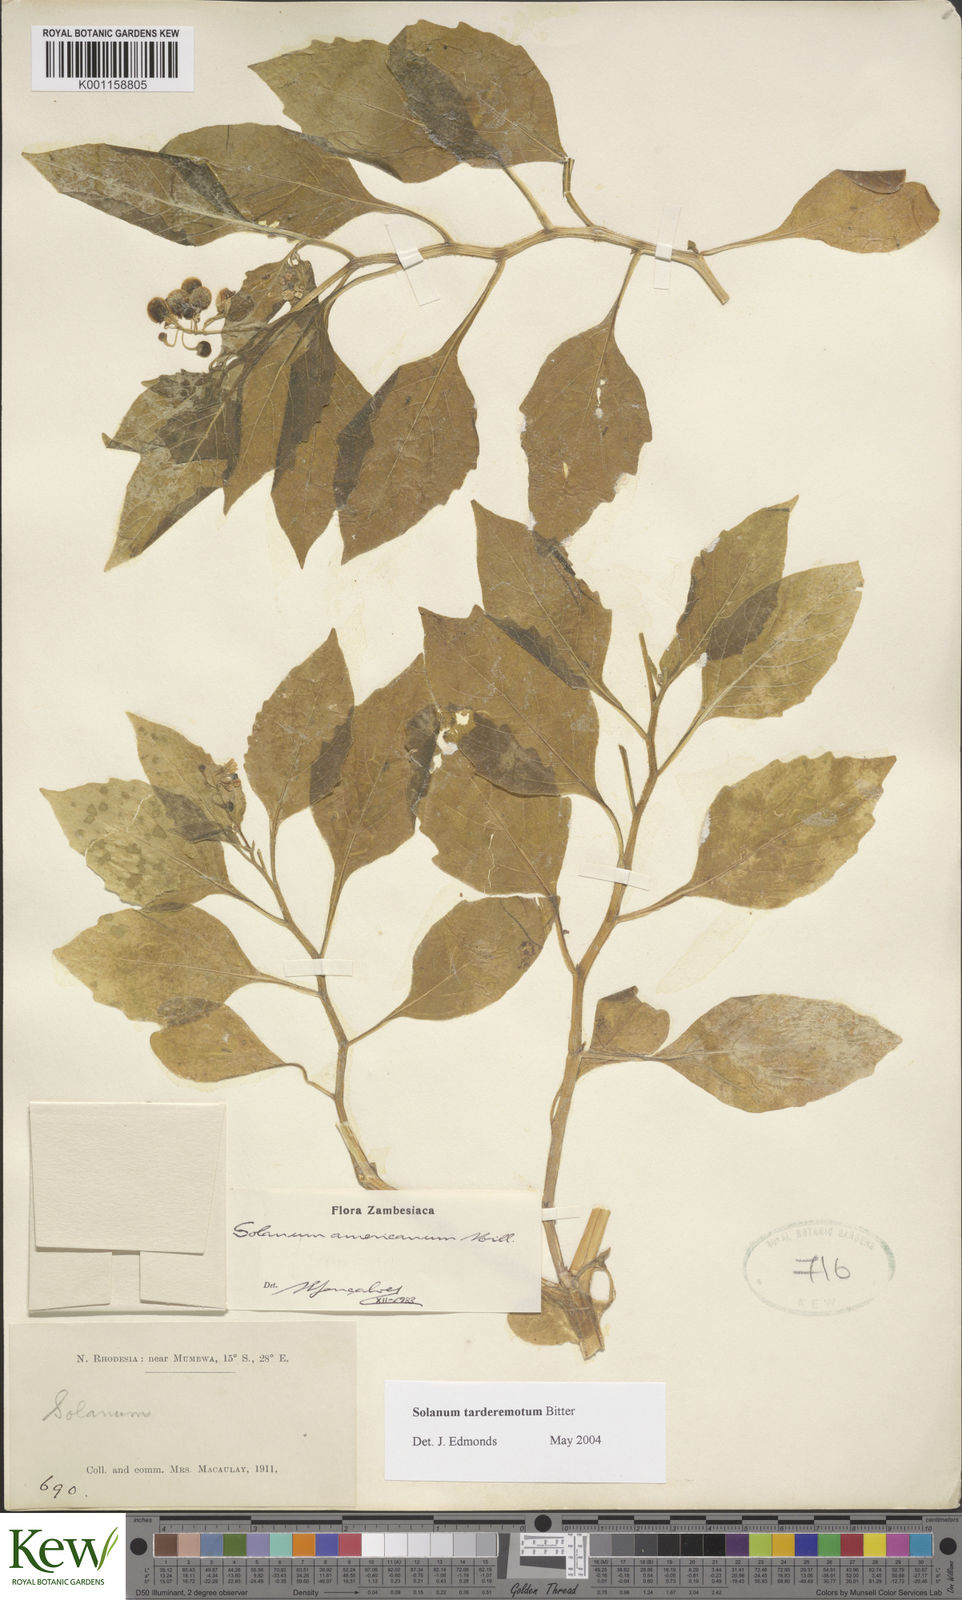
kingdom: Plantae
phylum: Tracheophyta
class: Magnoliopsida
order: Solanales
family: Solanaceae
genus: Solanum
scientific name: Solanum tarderemotum
